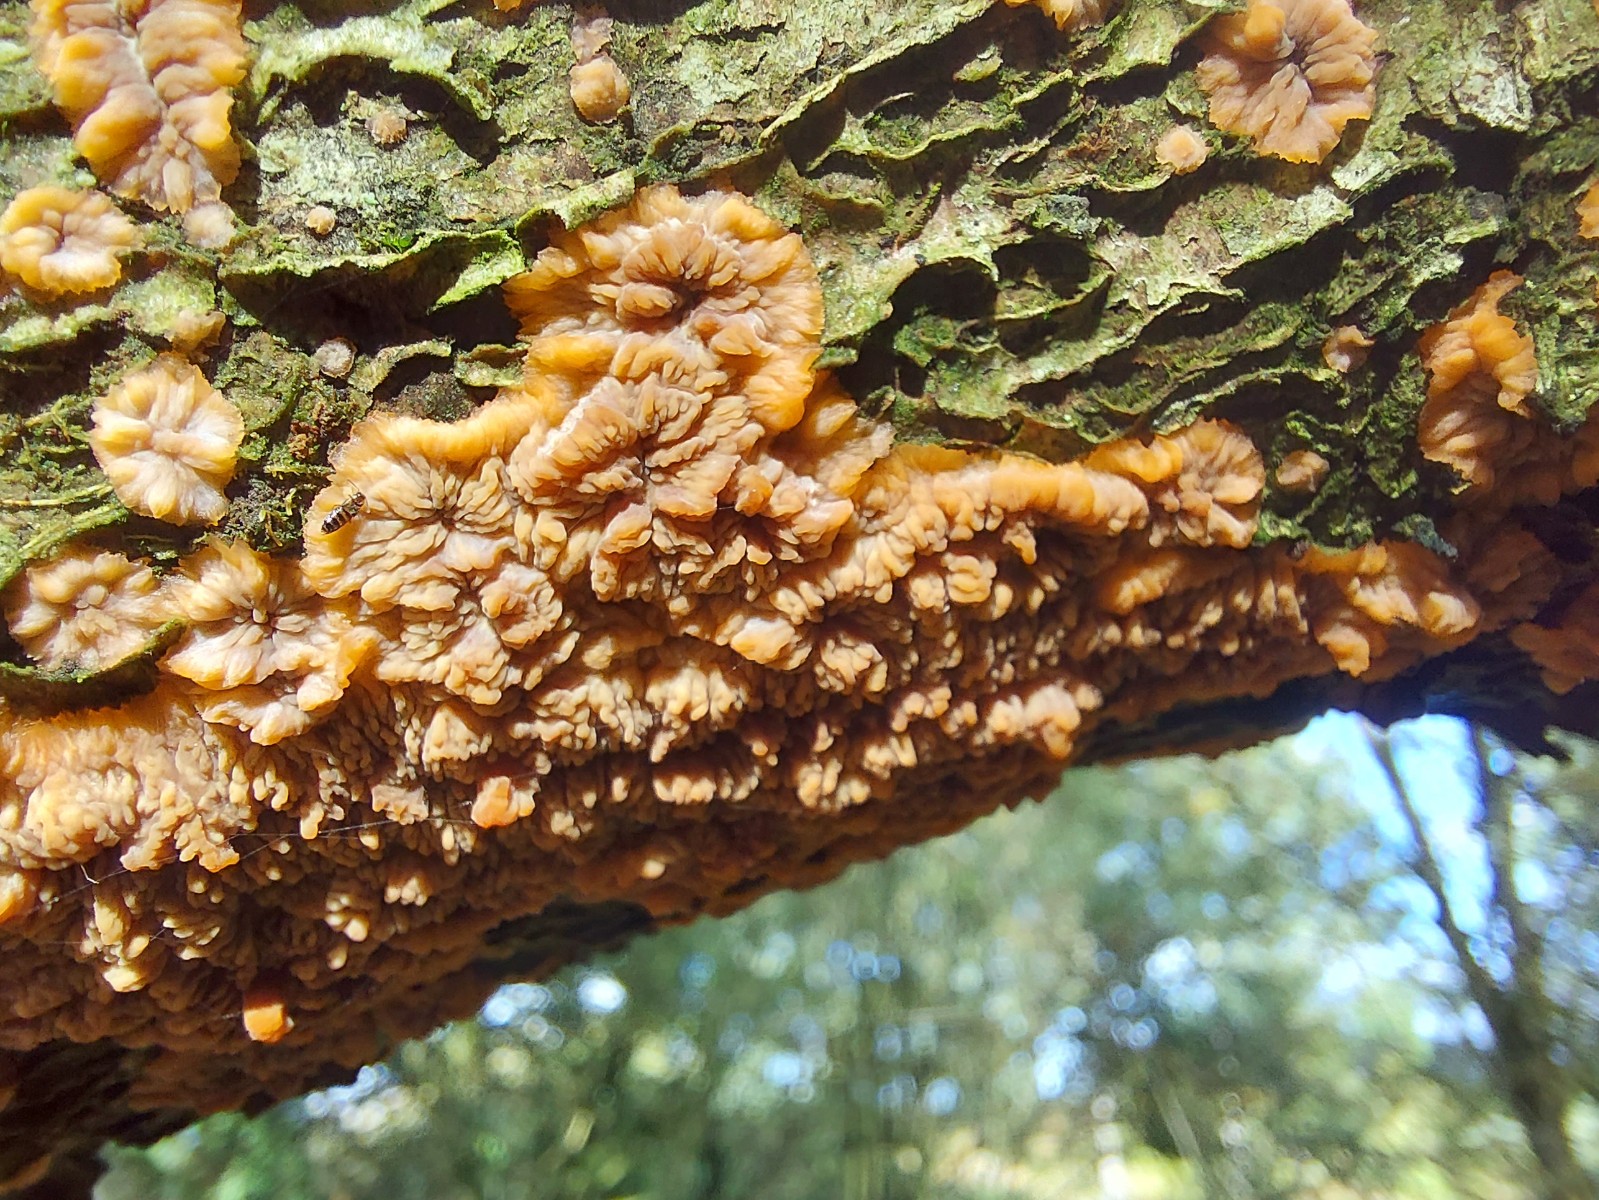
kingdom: Fungi
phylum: Basidiomycota
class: Agaricomycetes
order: Polyporales
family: Meruliaceae
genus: Phlebia
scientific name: Phlebia radiata
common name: stråle-åresvamp
